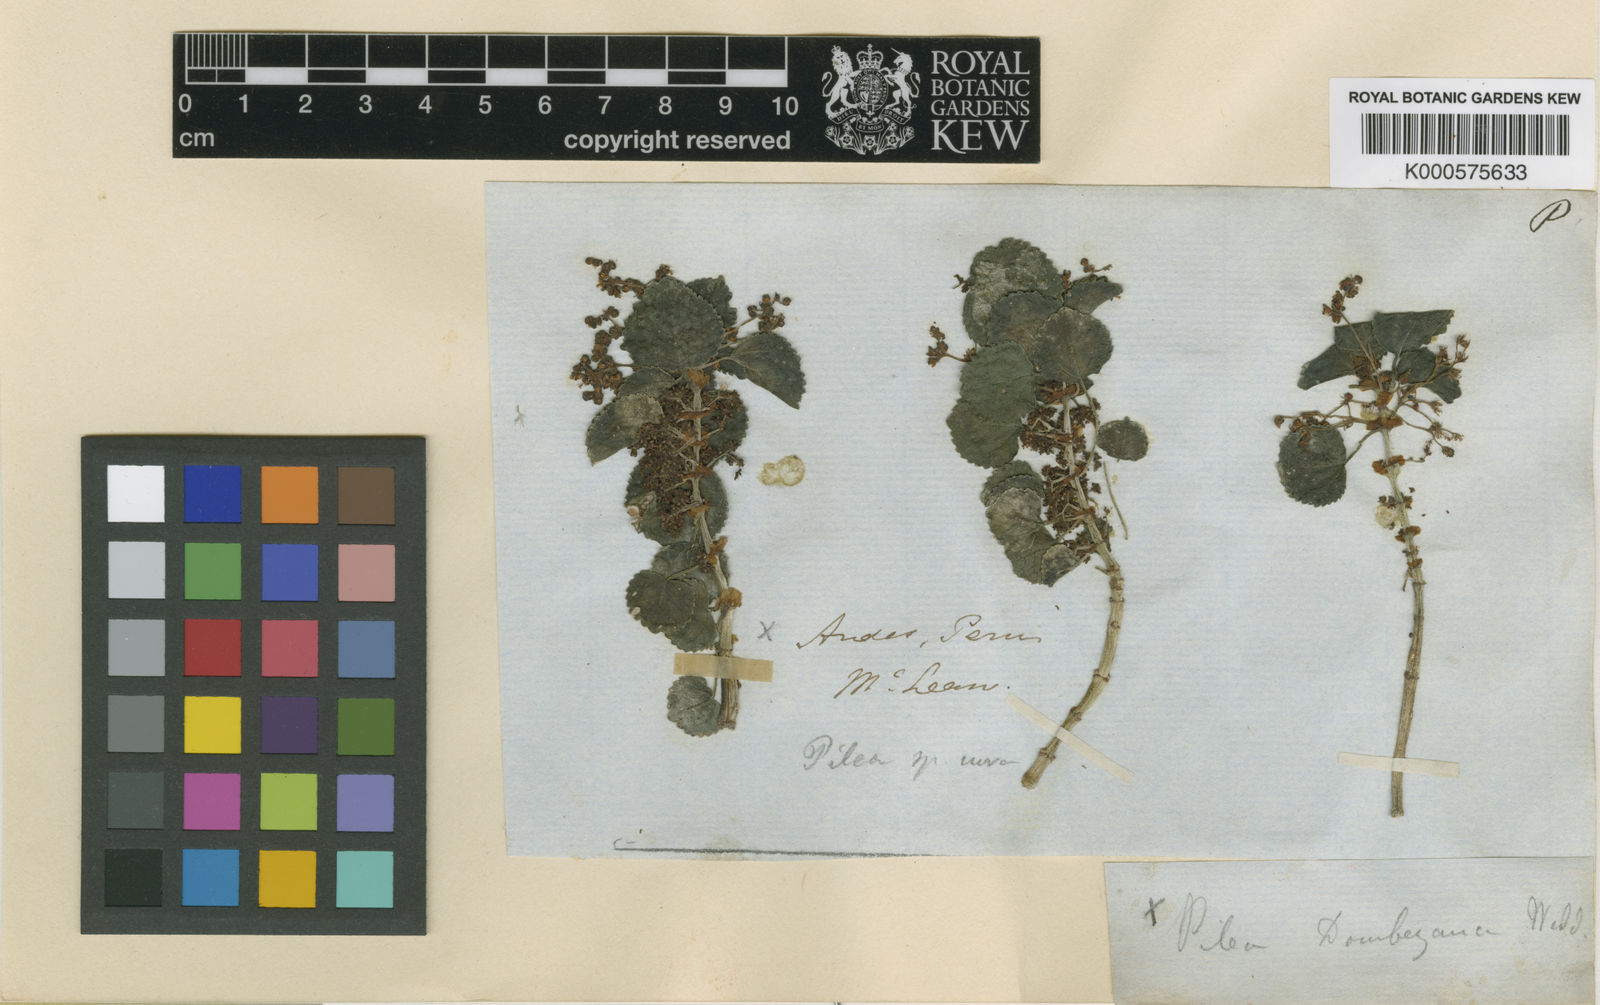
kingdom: Plantae
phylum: Tracheophyta
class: Magnoliopsida
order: Rosales
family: Urticaceae
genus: Pilea
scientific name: Pilea dombeyana
